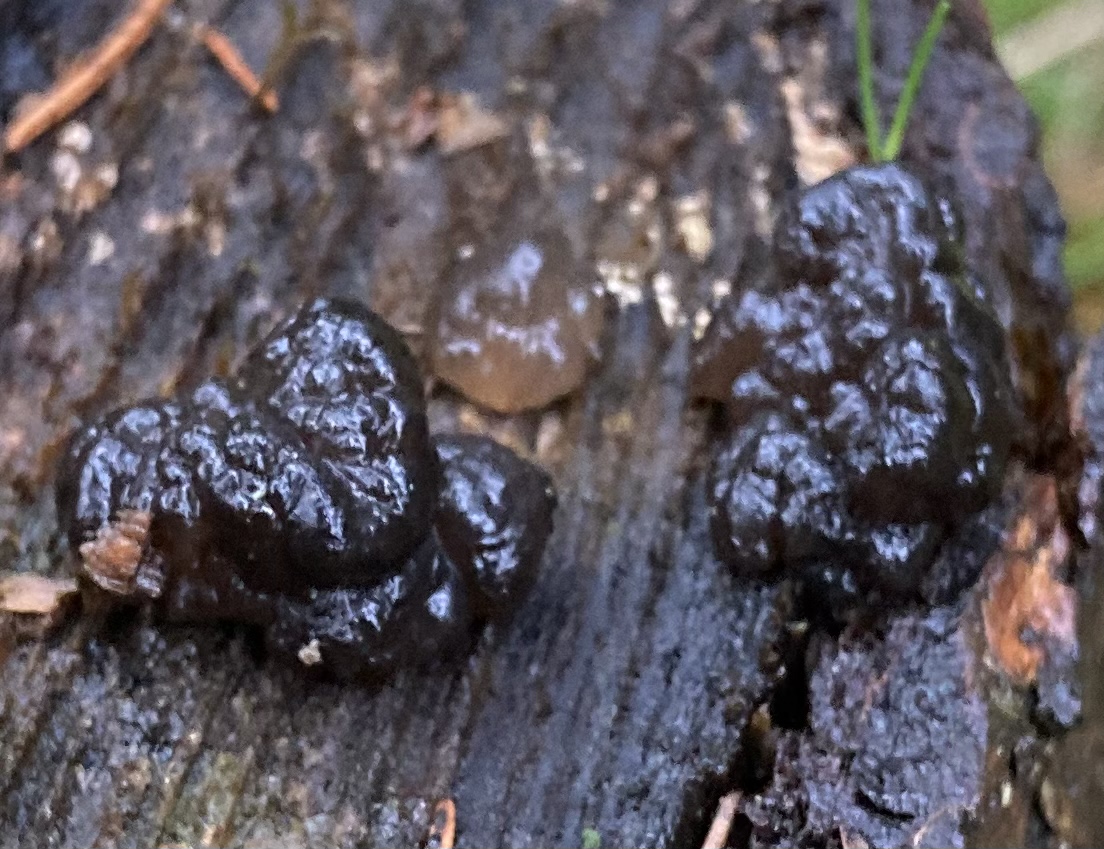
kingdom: Fungi
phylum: Basidiomycota
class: Agaricomycetes
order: Auriculariales
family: Auriculariaceae
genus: Exidia
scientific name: Exidia nigricans
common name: almindelig bævretop
